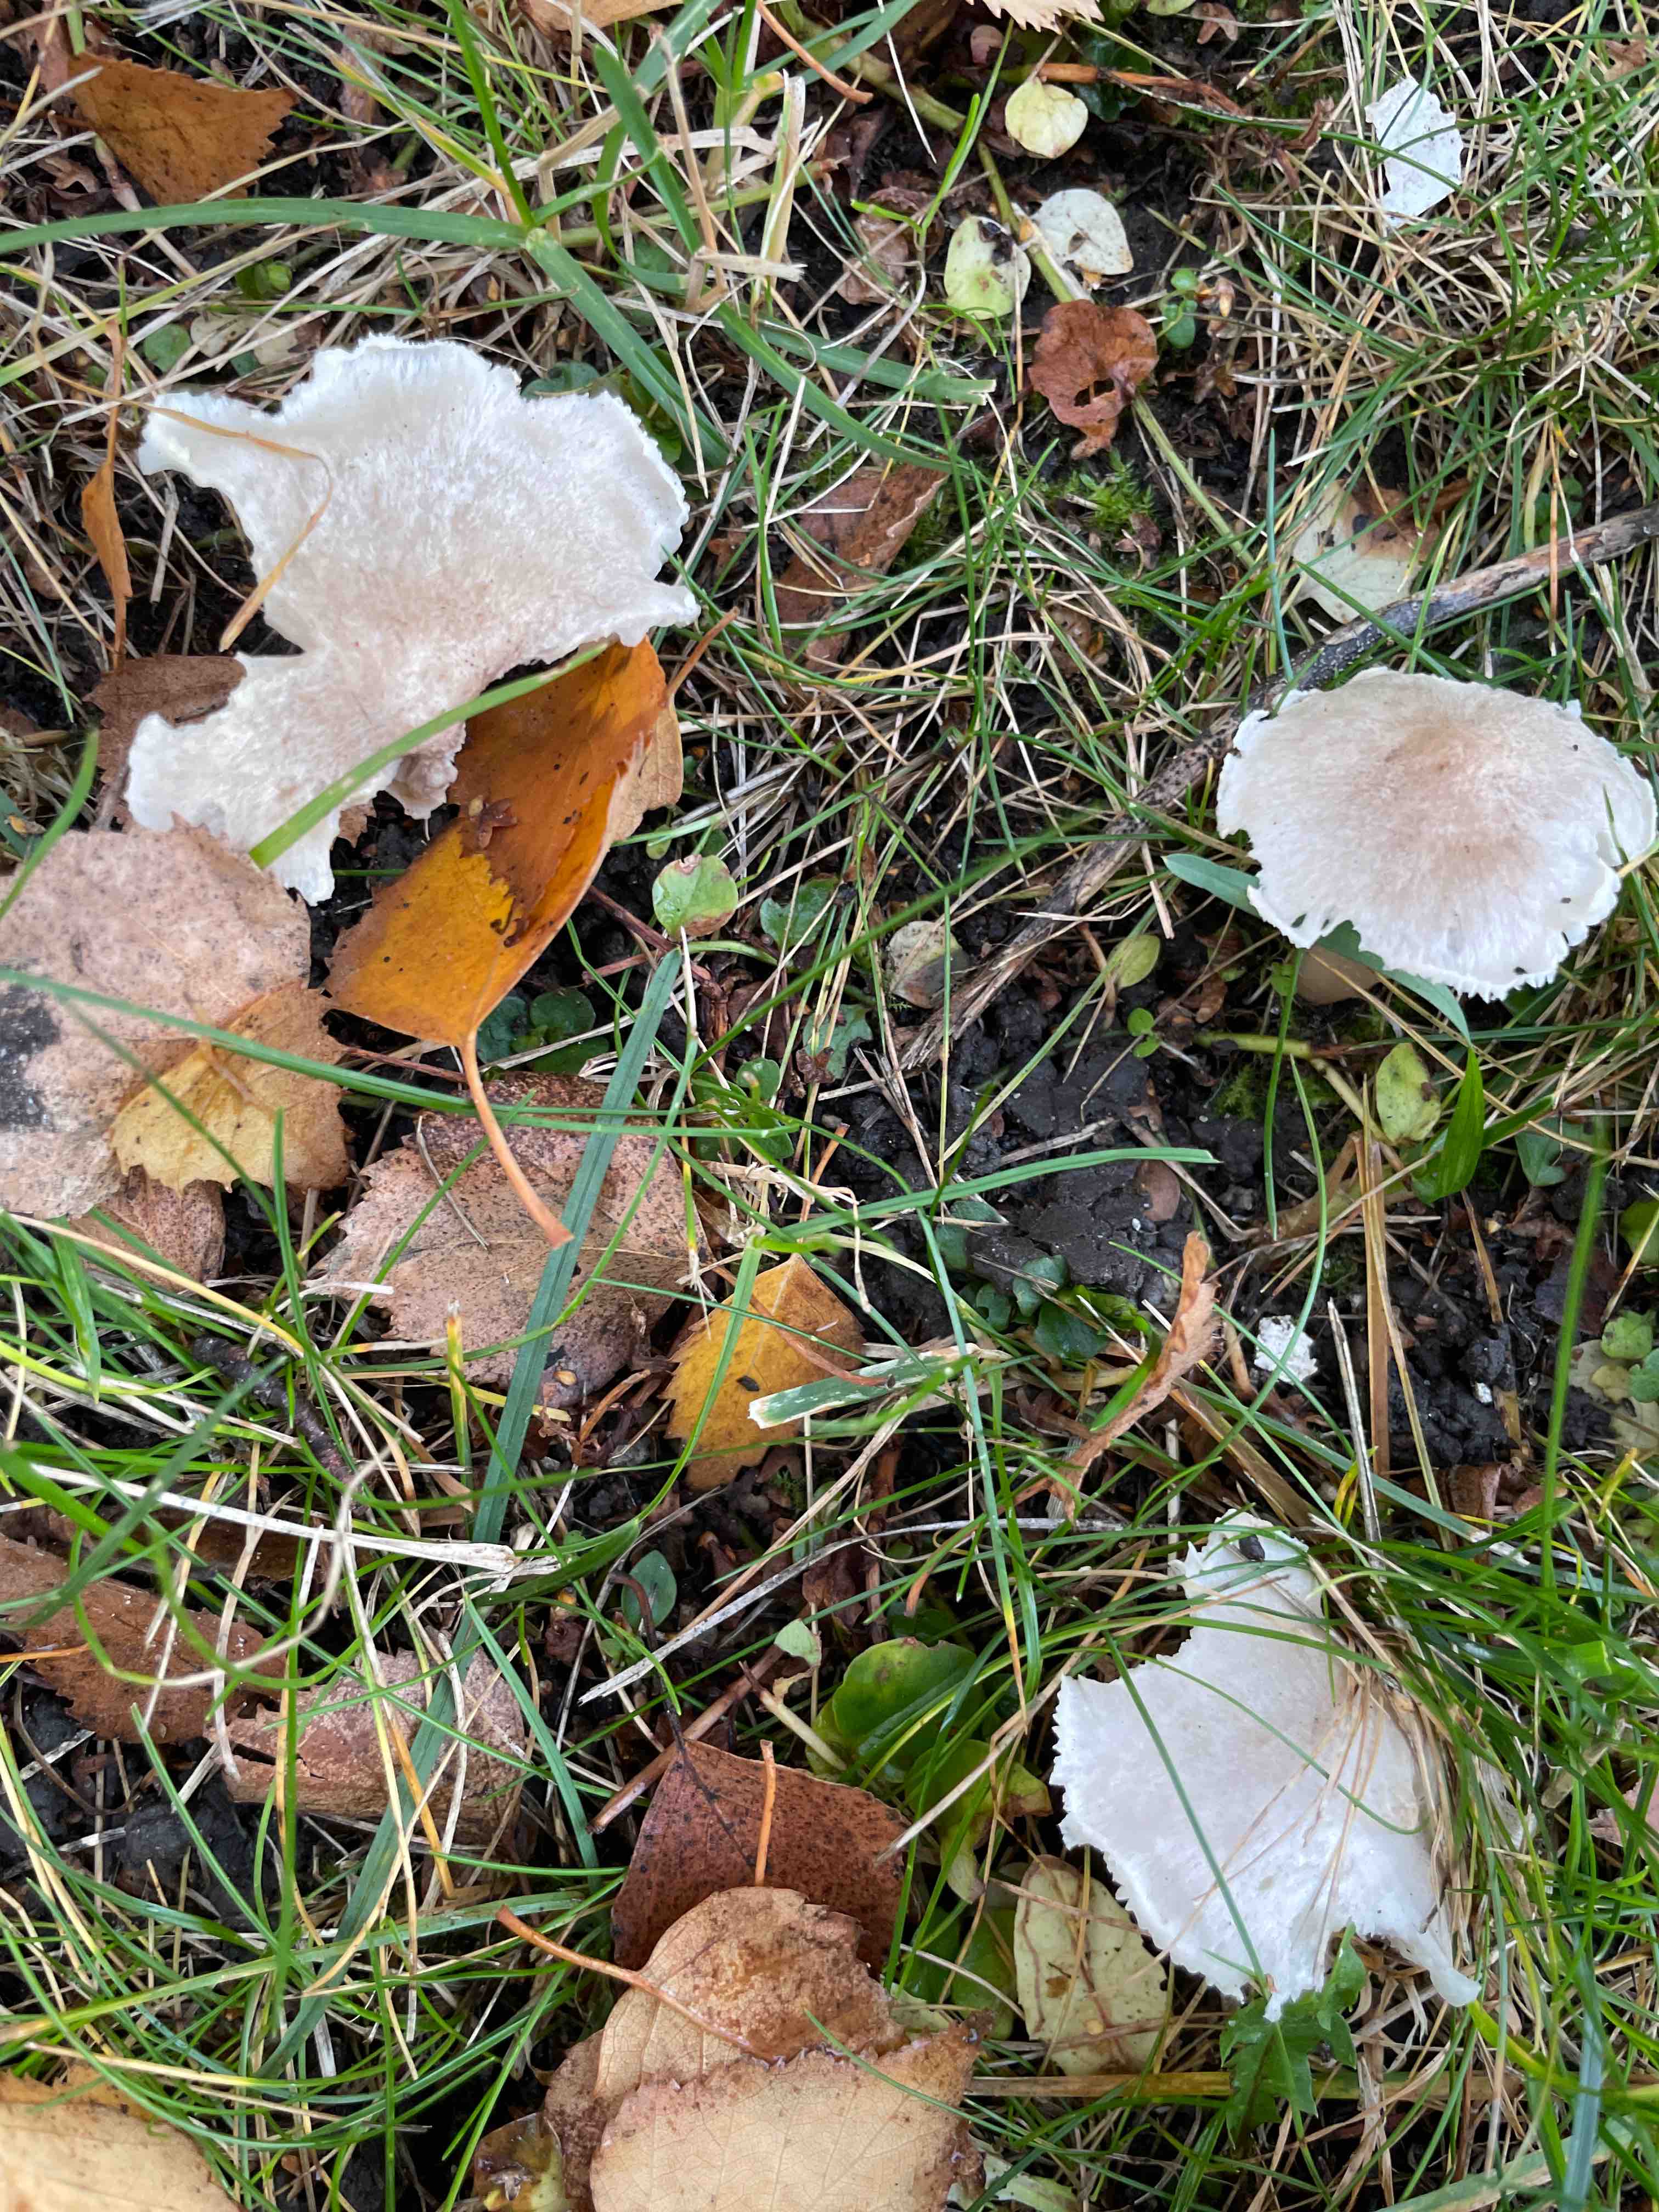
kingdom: Fungi
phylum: Basidiomycota
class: Agaricomycetes
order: Agaricales
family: Tricholomataceae
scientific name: Tricholomataceae
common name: ridderhatfamilien
